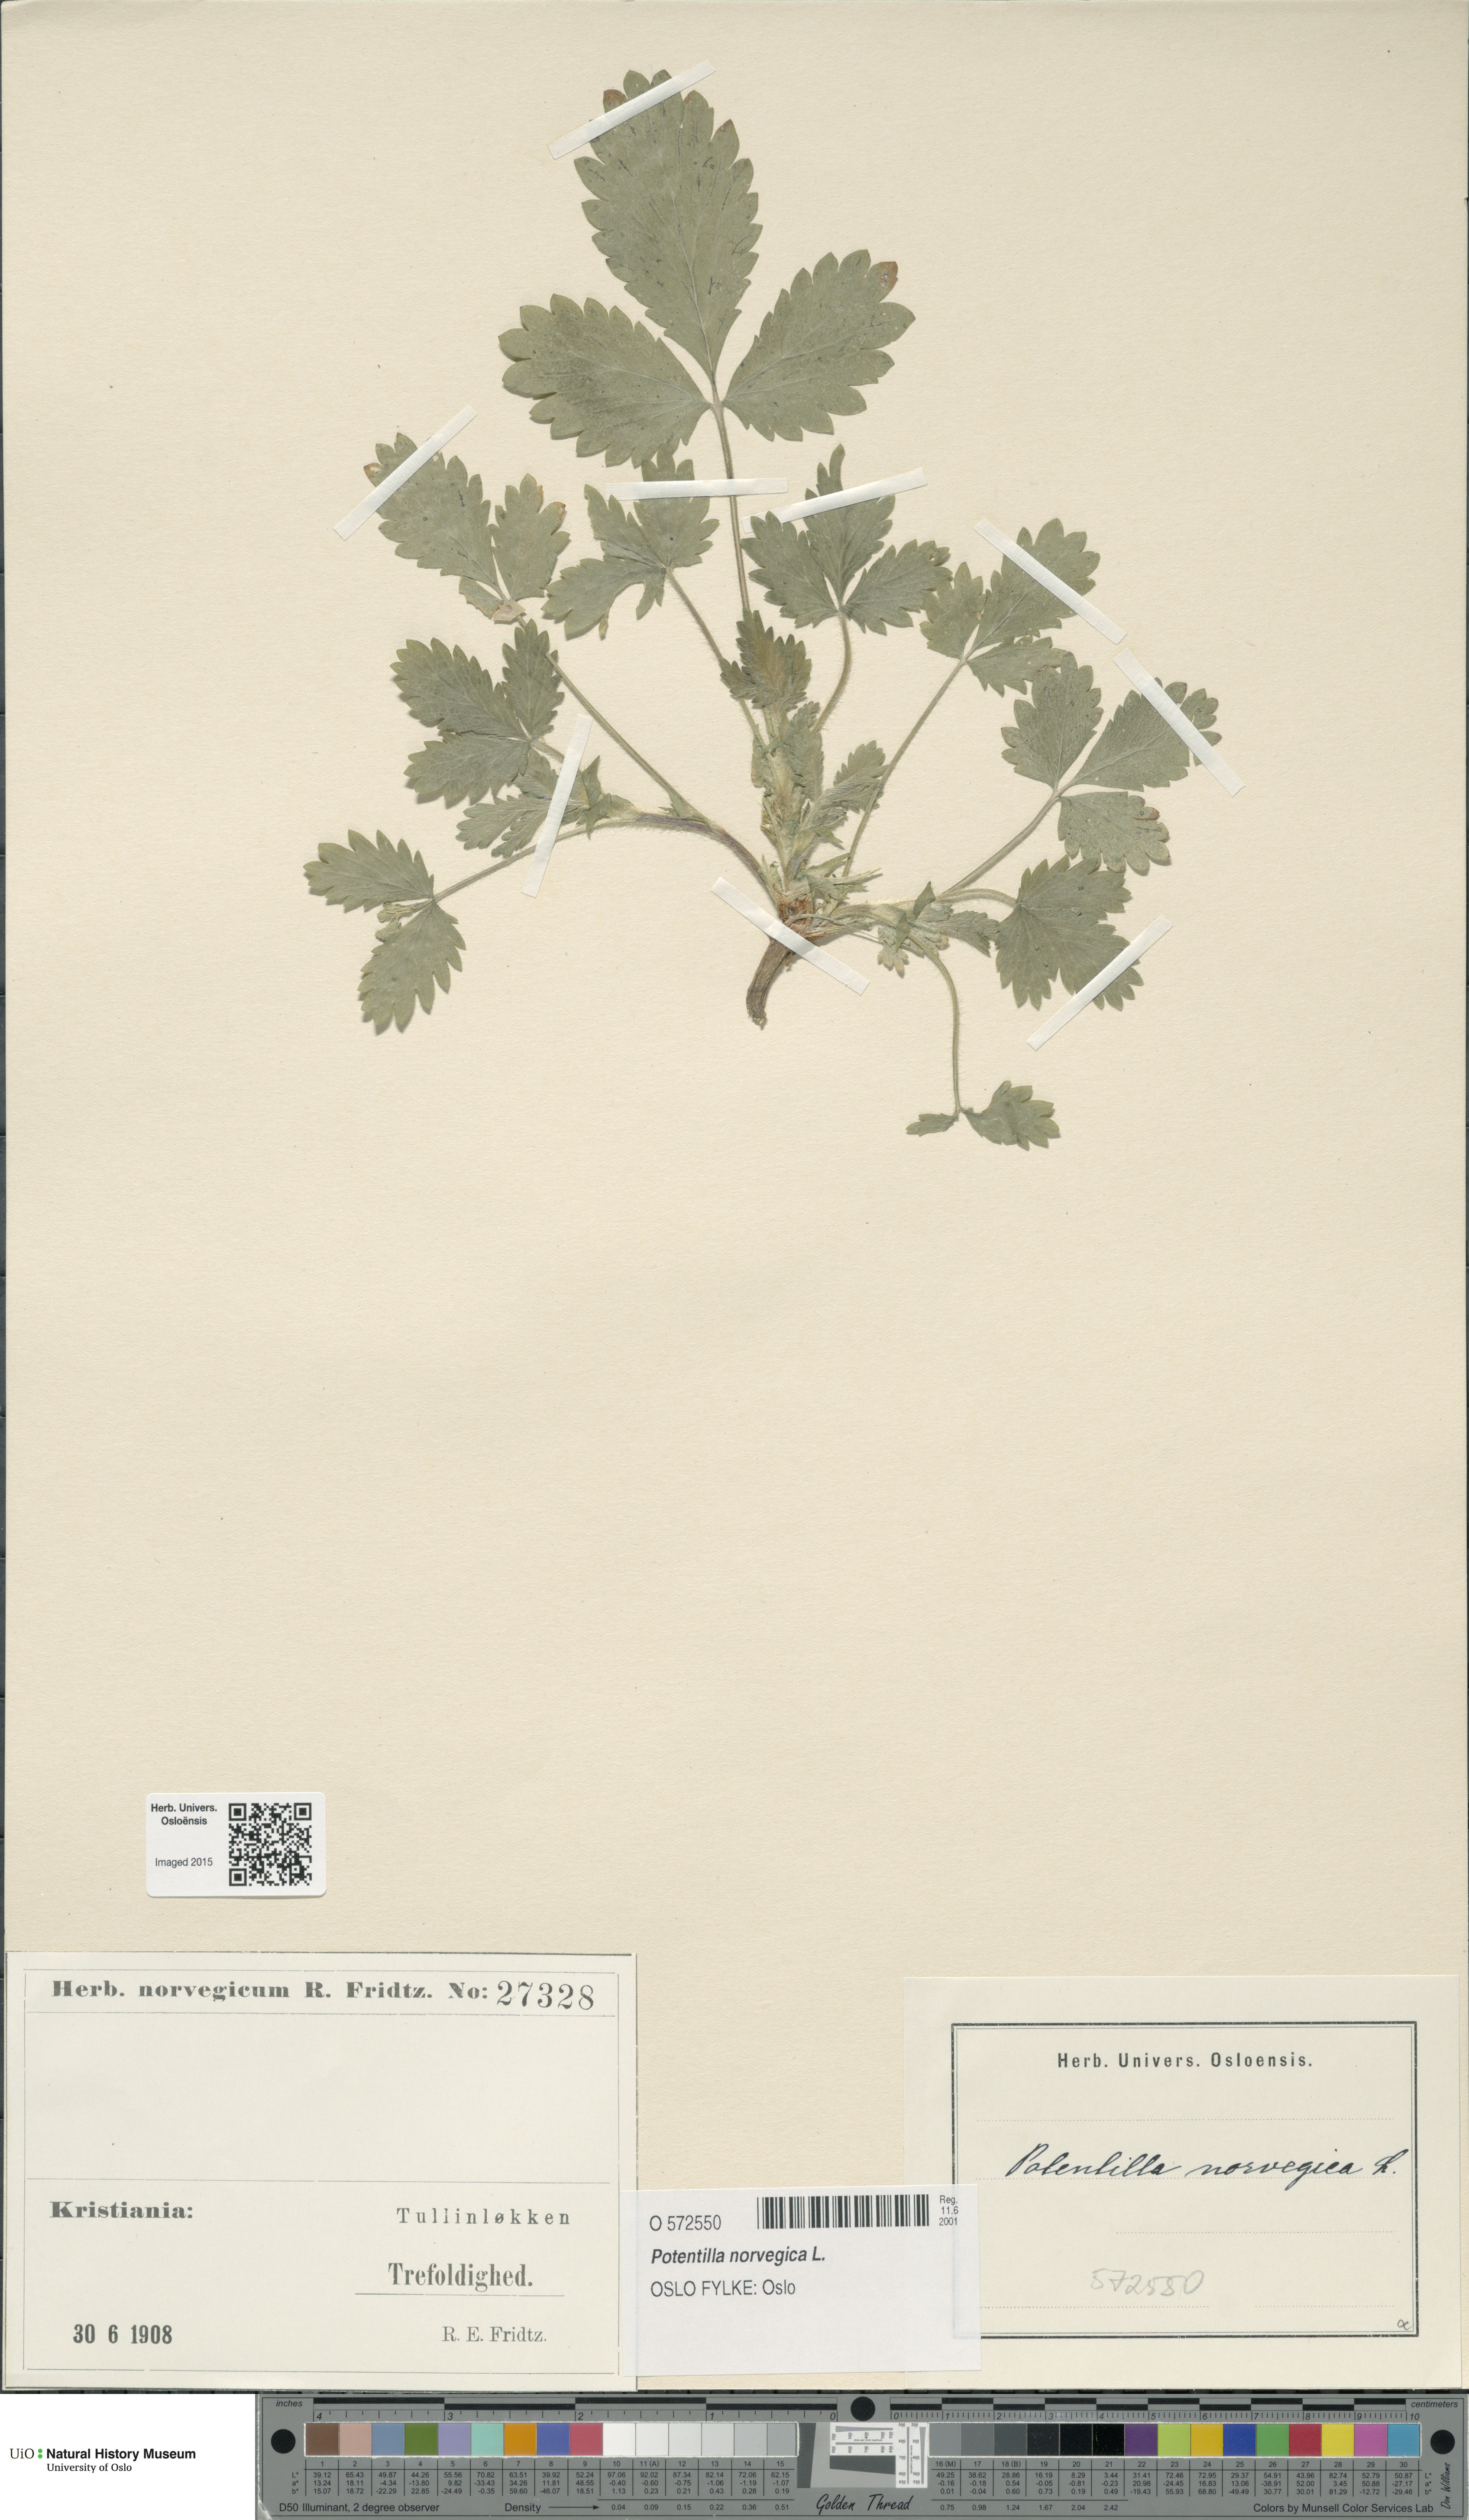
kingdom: Plantae
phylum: Tracheophyta
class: Magnoliopsida
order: Rosales
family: Rosaceae
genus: Potentilla
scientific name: Potentilla norvegica
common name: Ternate-leaved cinquefoil
